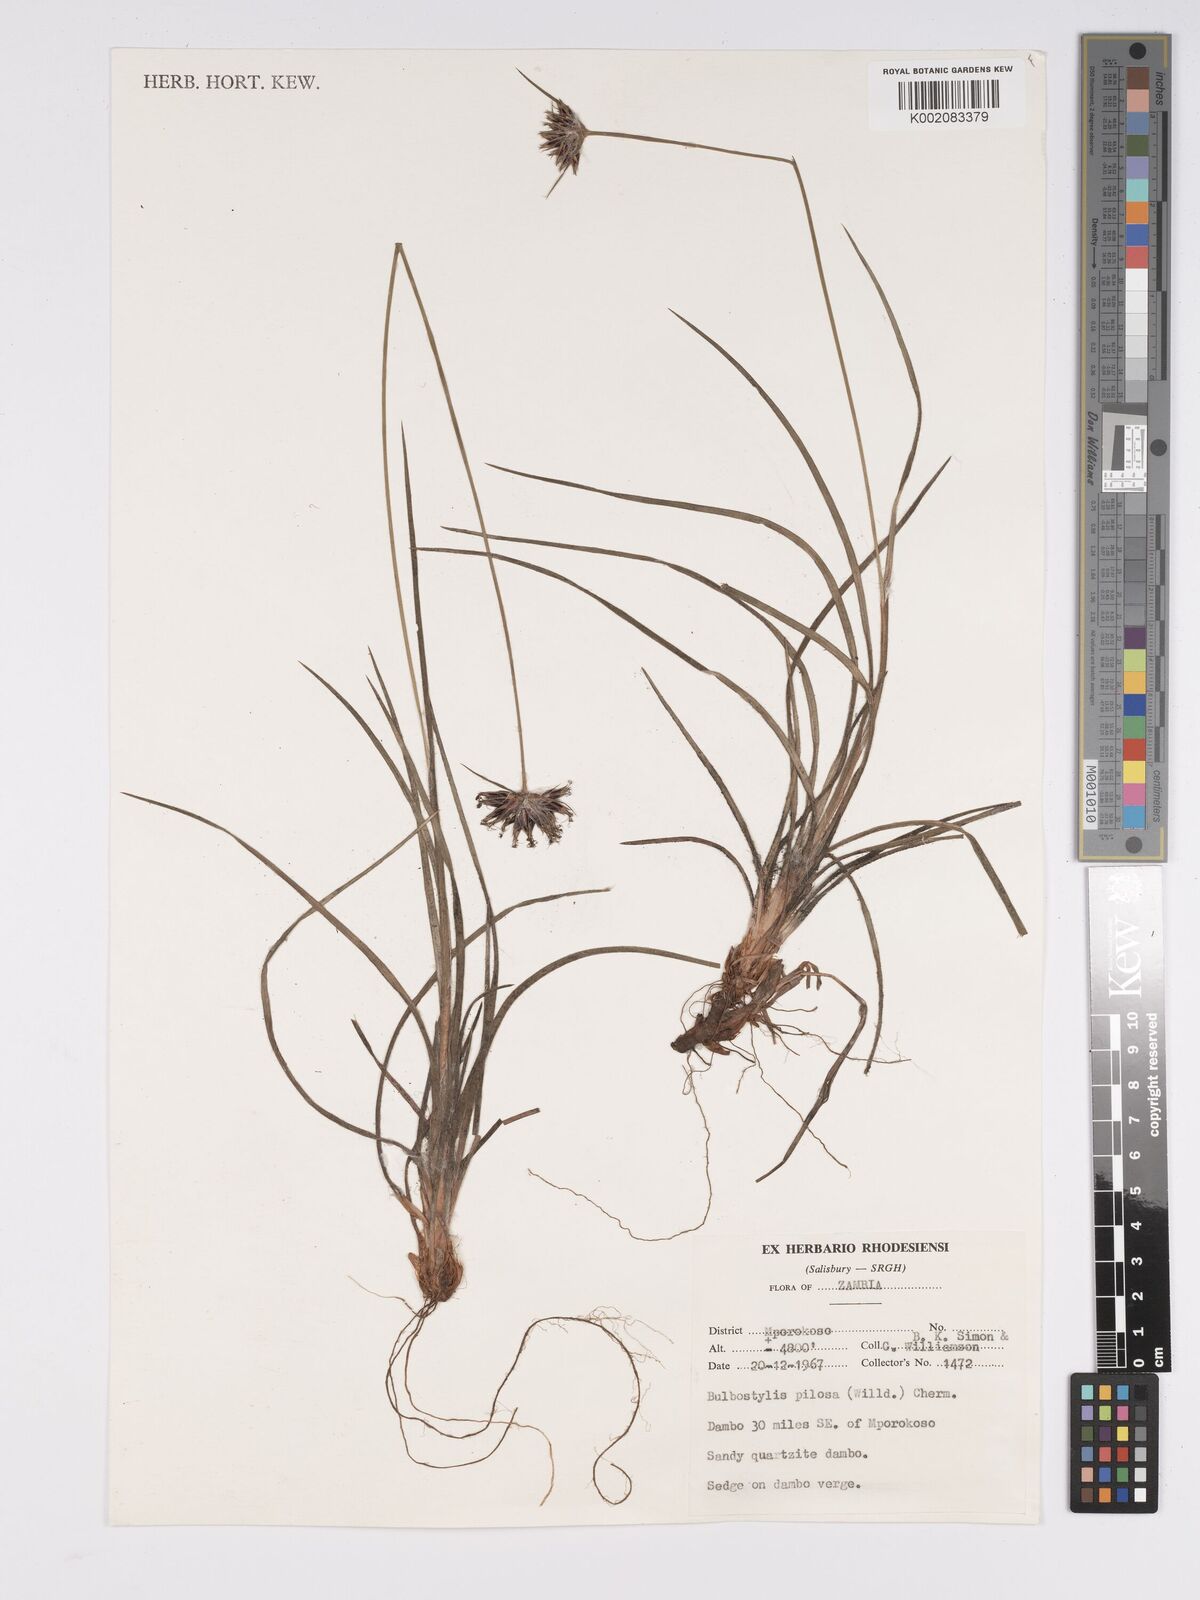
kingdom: Plantae
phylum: Tracheophyta
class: Liliopsida
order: Poales
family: Cyperaceae
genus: Bulbostylis
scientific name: Bulbostylis pilosa
